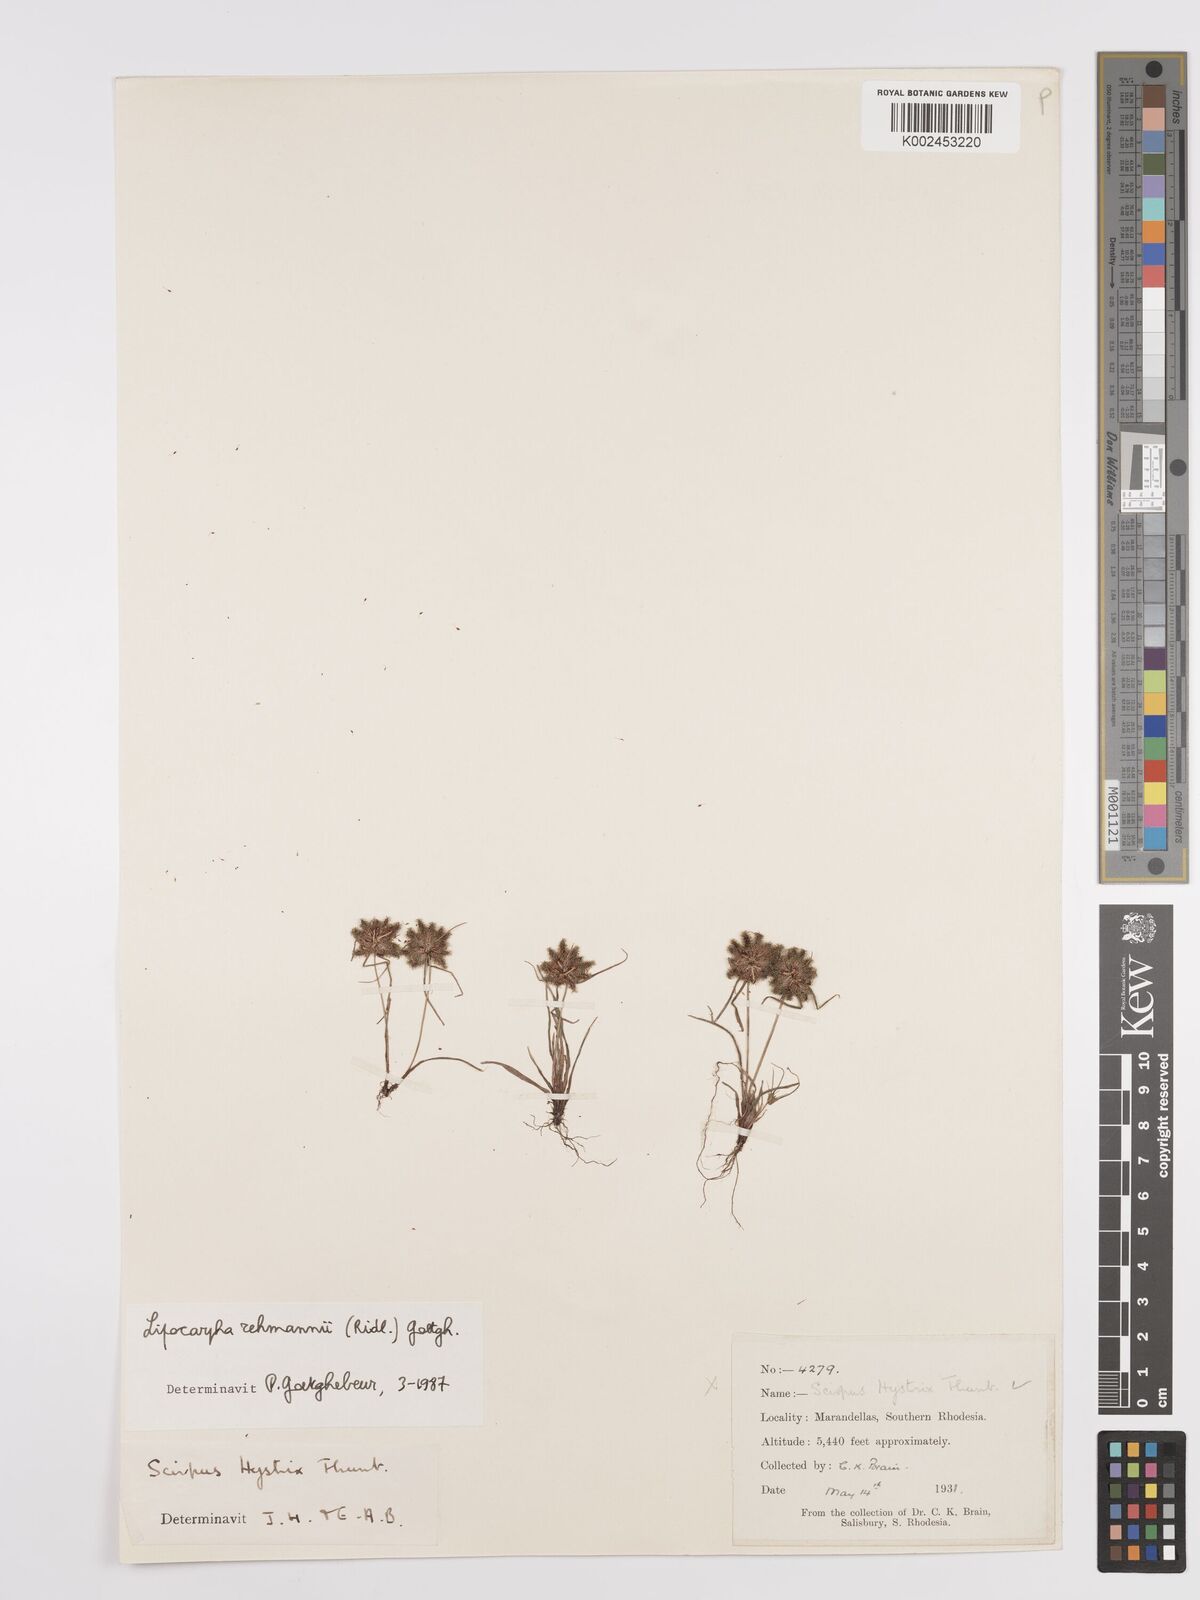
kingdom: Plantae
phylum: Tracheophyta
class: Liliopsida
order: Poales
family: Cyperaceae
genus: Cyperus
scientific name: Cyperus sanguinolentus
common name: Purpleglume flatsedge
